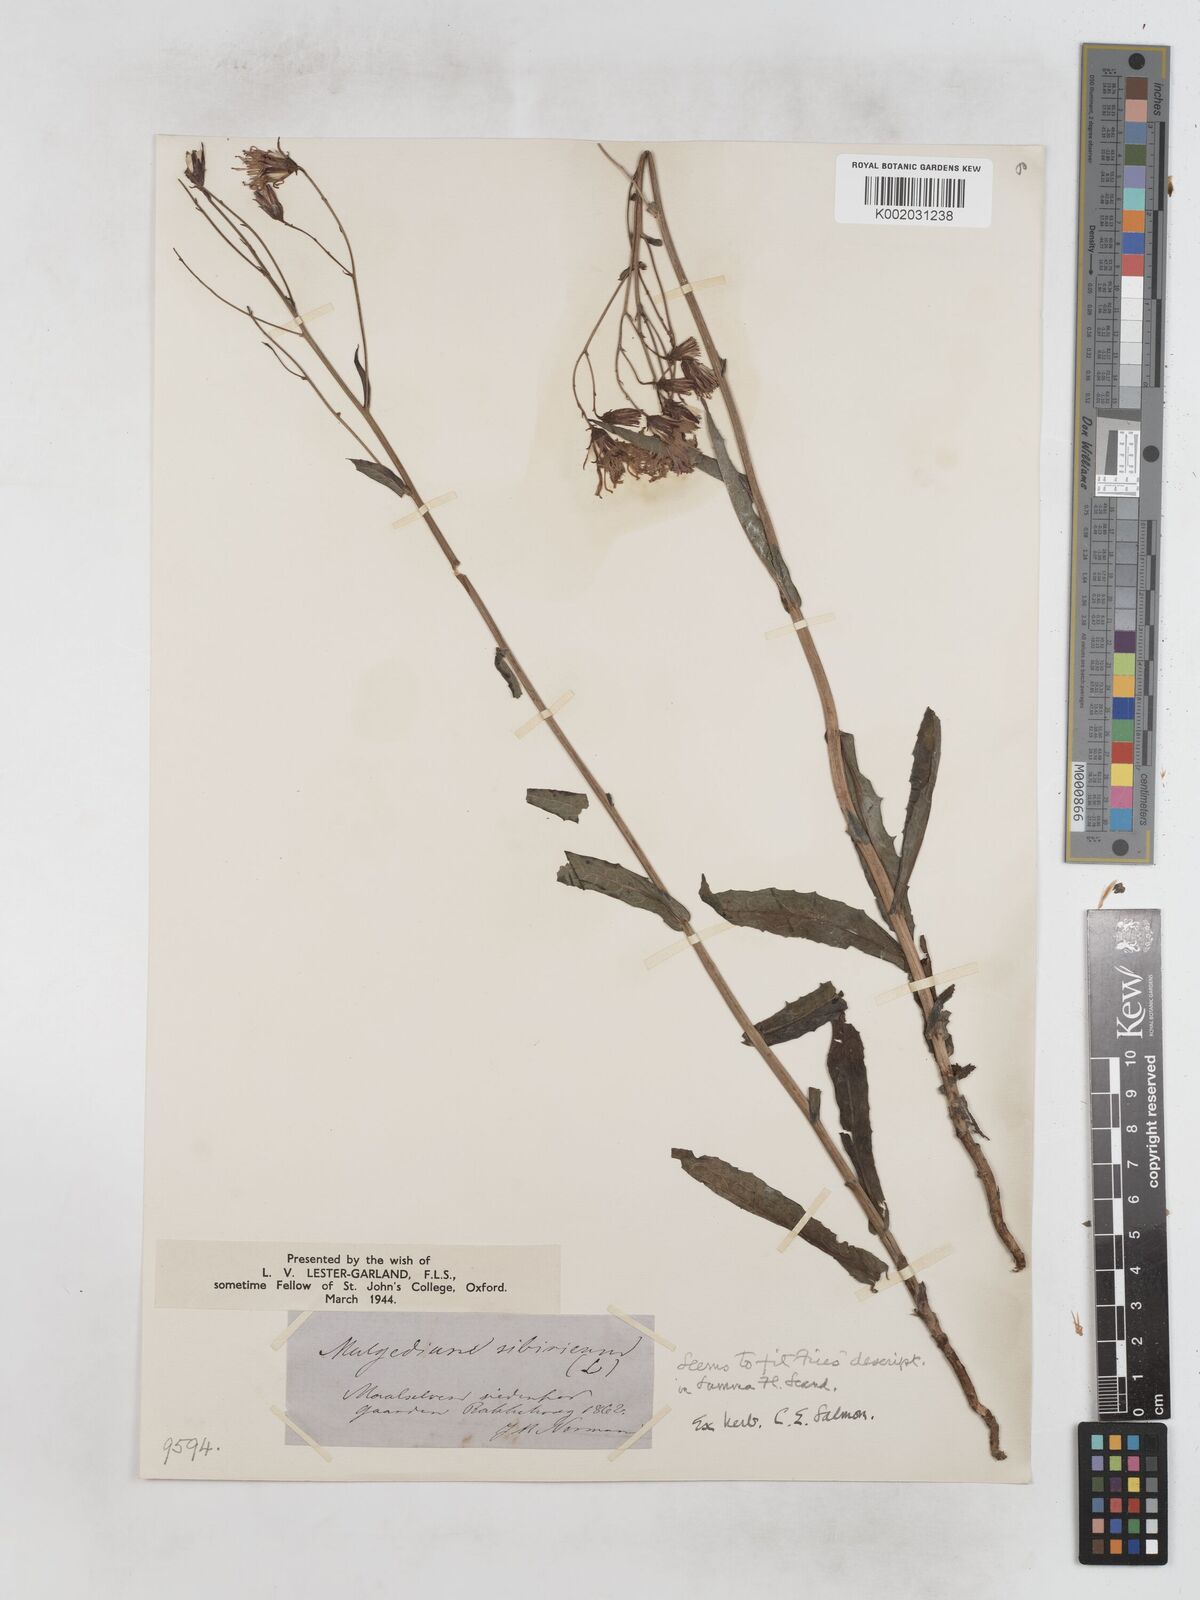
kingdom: Plantae
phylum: Tracheophyta
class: Magnoliopsida
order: Asterales
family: Asteraceae
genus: Lactuca
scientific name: Lactuca sibirica
